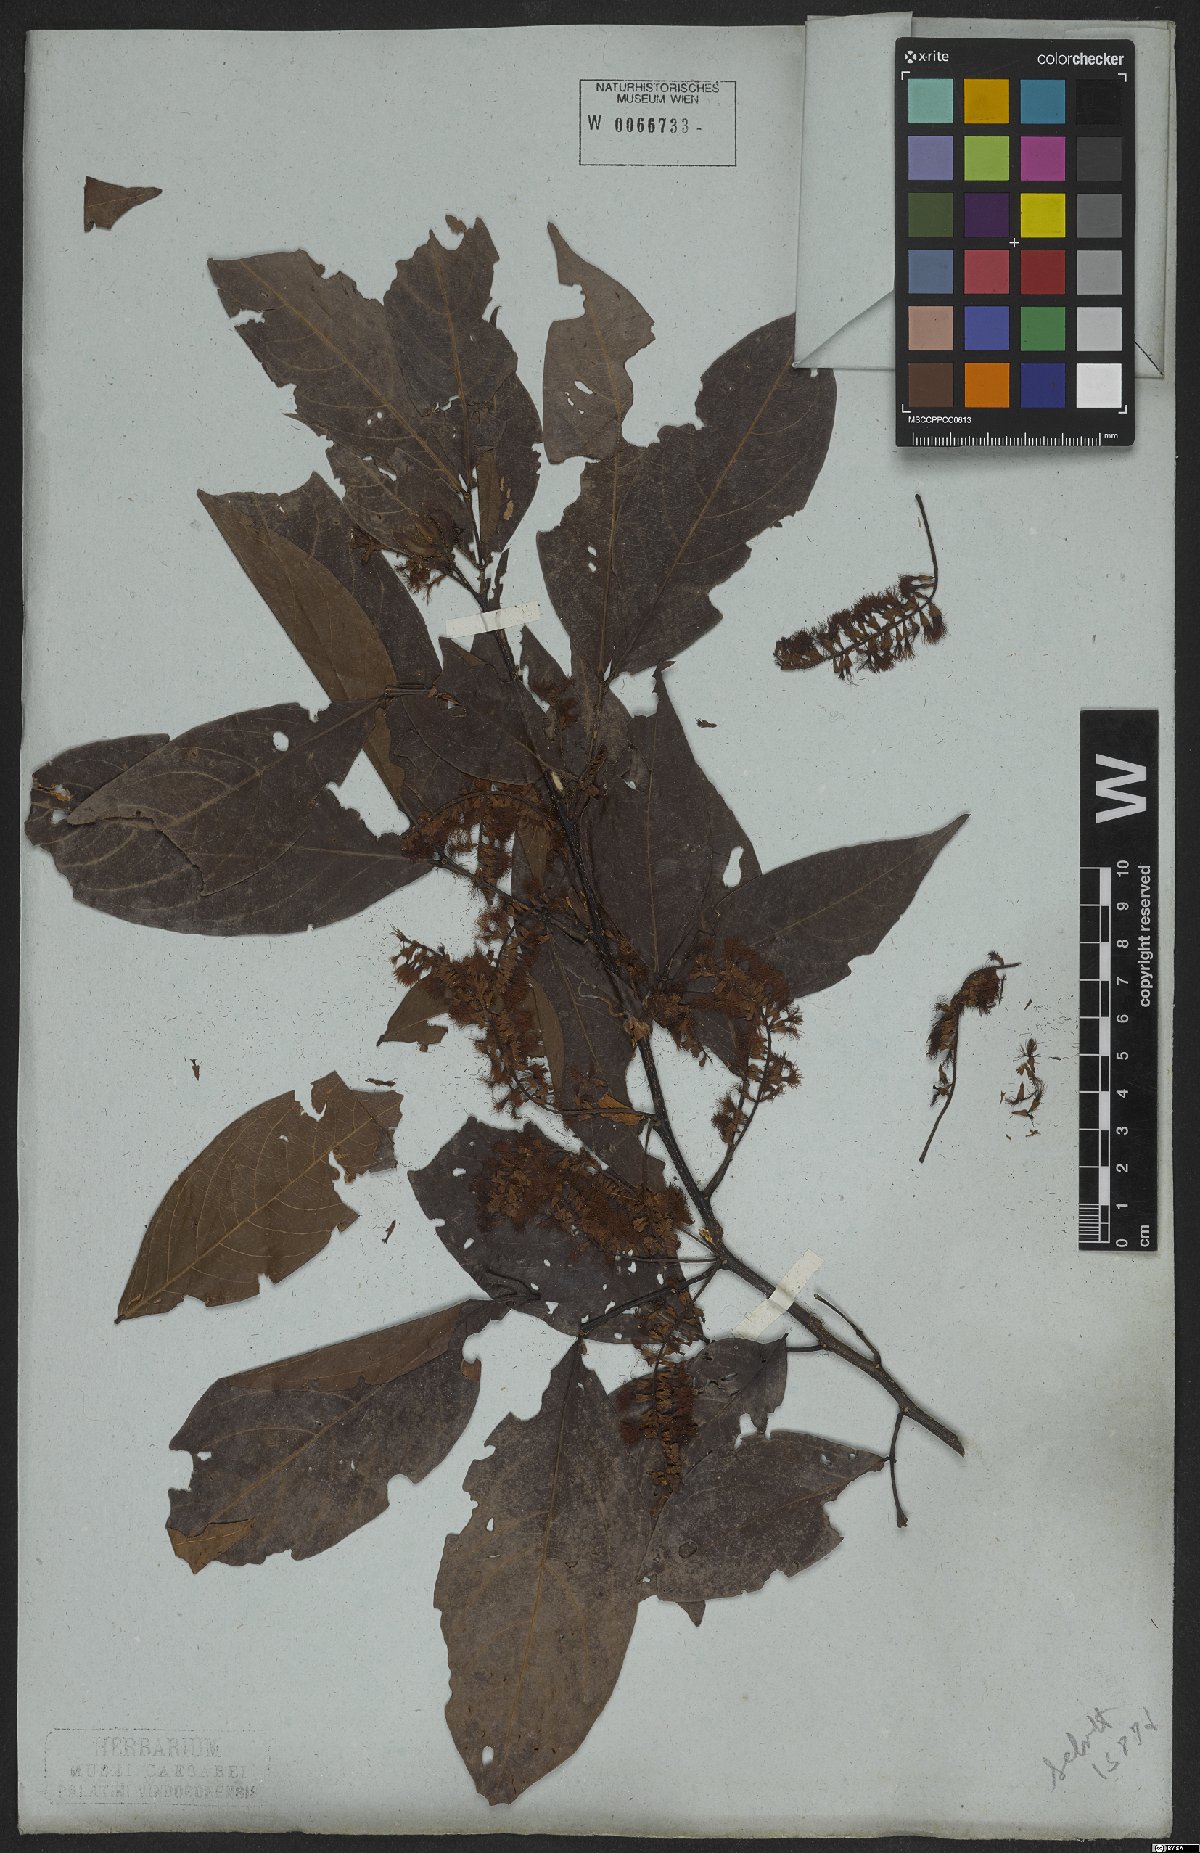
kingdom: Plantae
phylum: Tracheophyta
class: Magnoliopsida
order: Fabales
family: Fabaceae
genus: Inga
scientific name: Inga marginata
